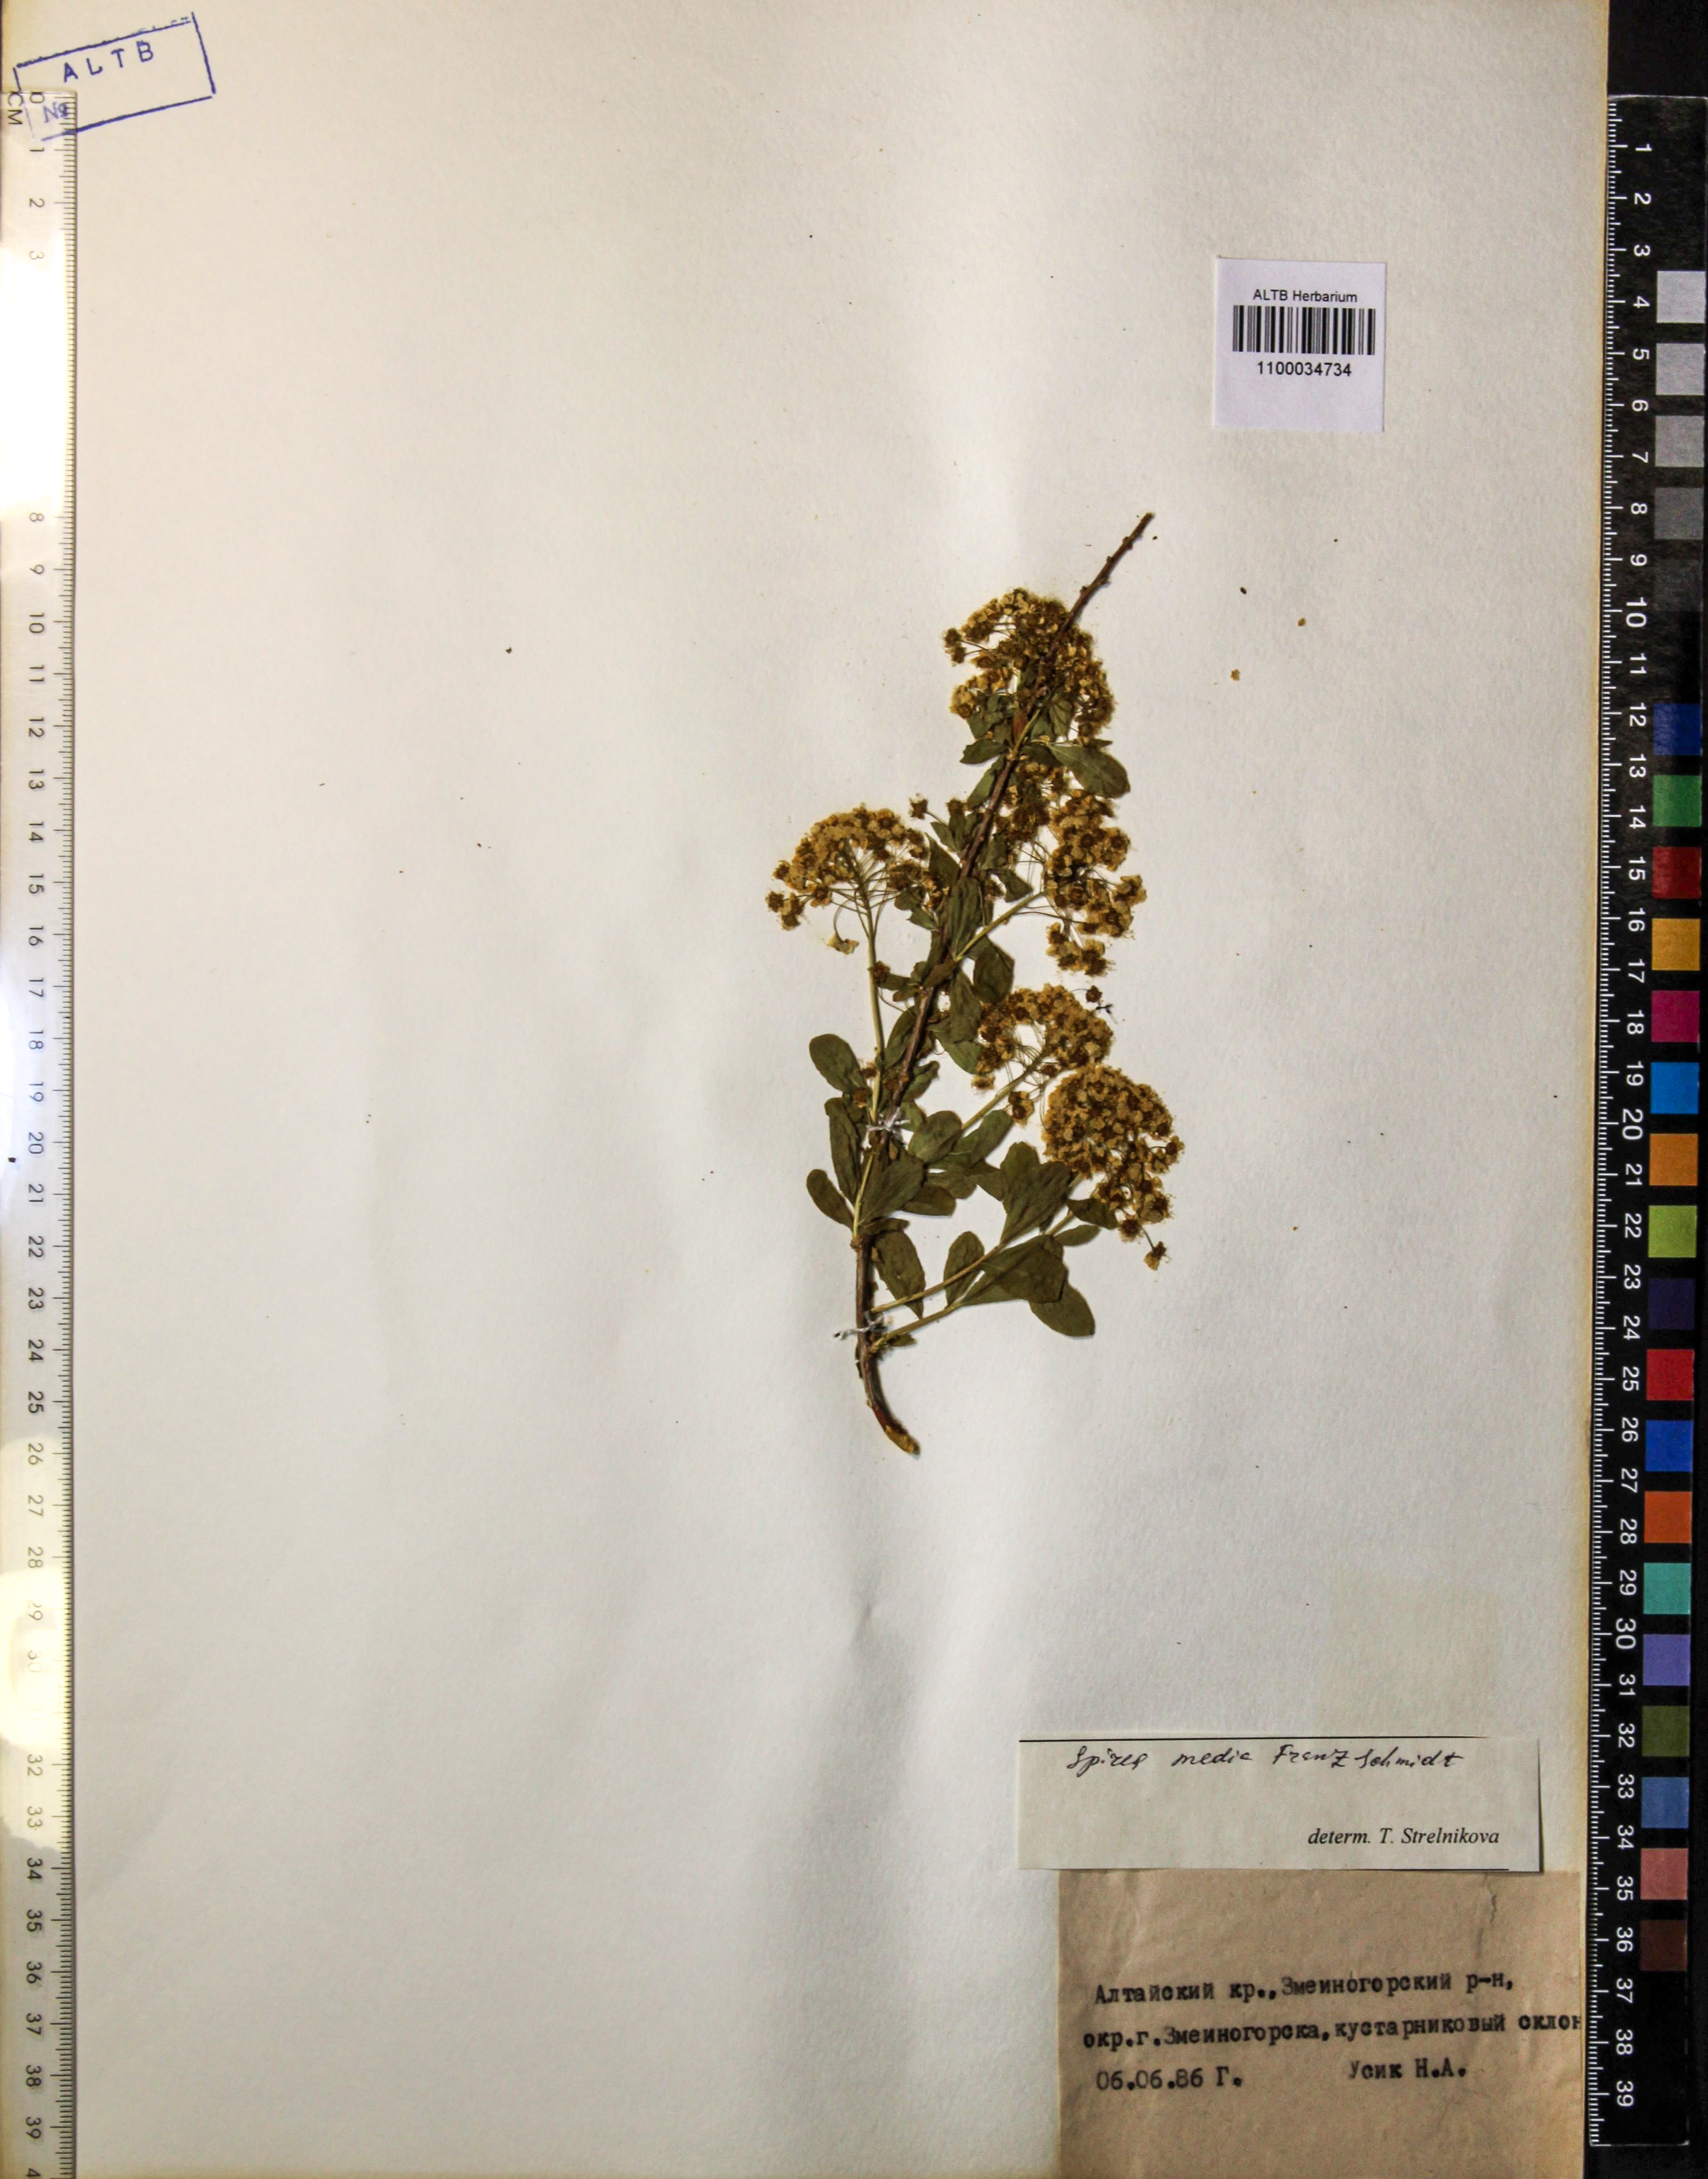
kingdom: Plantae
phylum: Tracheophyta
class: Magnoliopsida
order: Rosales
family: Rosaceae
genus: Spiraea
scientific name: Spiraea media
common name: Russian spiraea
